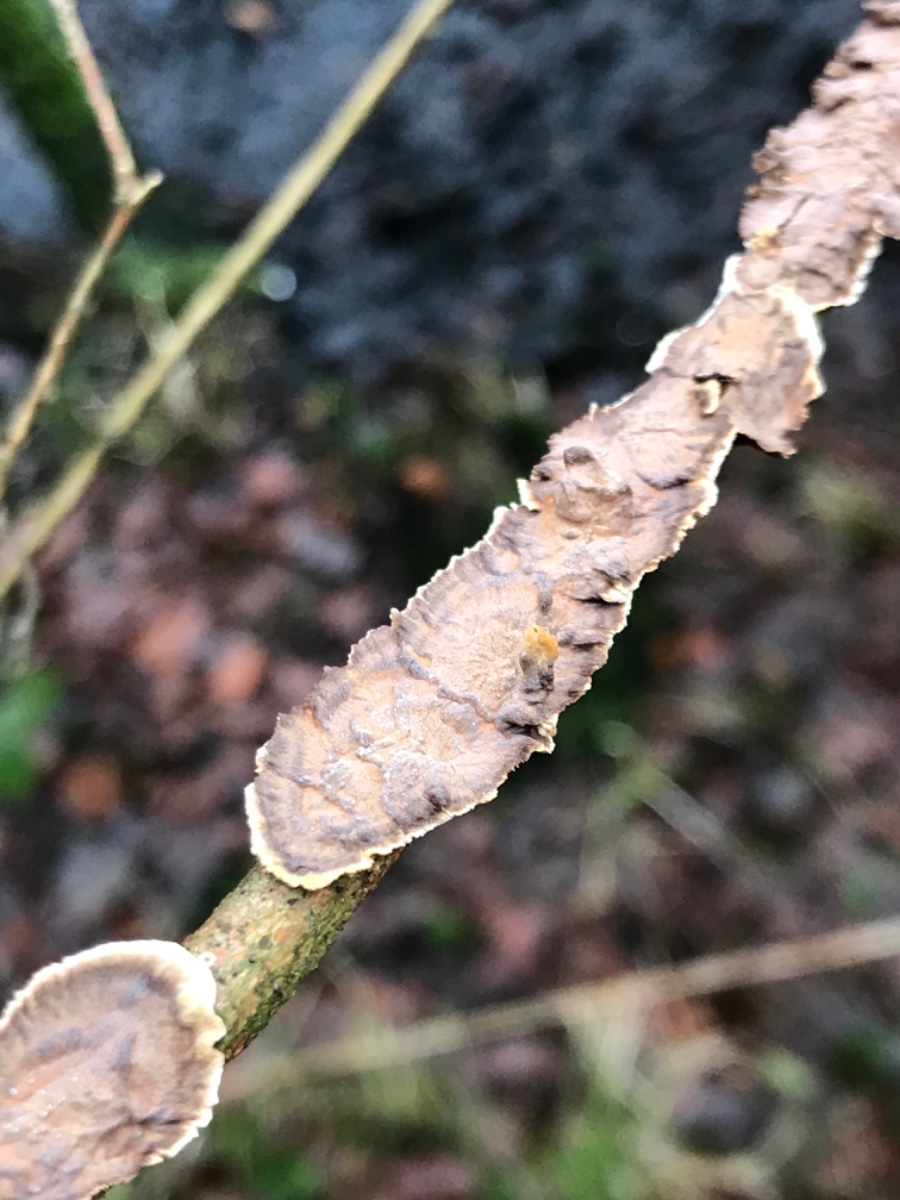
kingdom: Fungi
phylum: Basidiomycota
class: Agaricomycetes
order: Hymenochaetales
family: Hymenochaetaceae
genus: Hydnoporia
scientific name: Hydnoporia tabacina
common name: tobaksbrun ruslædersvamp
